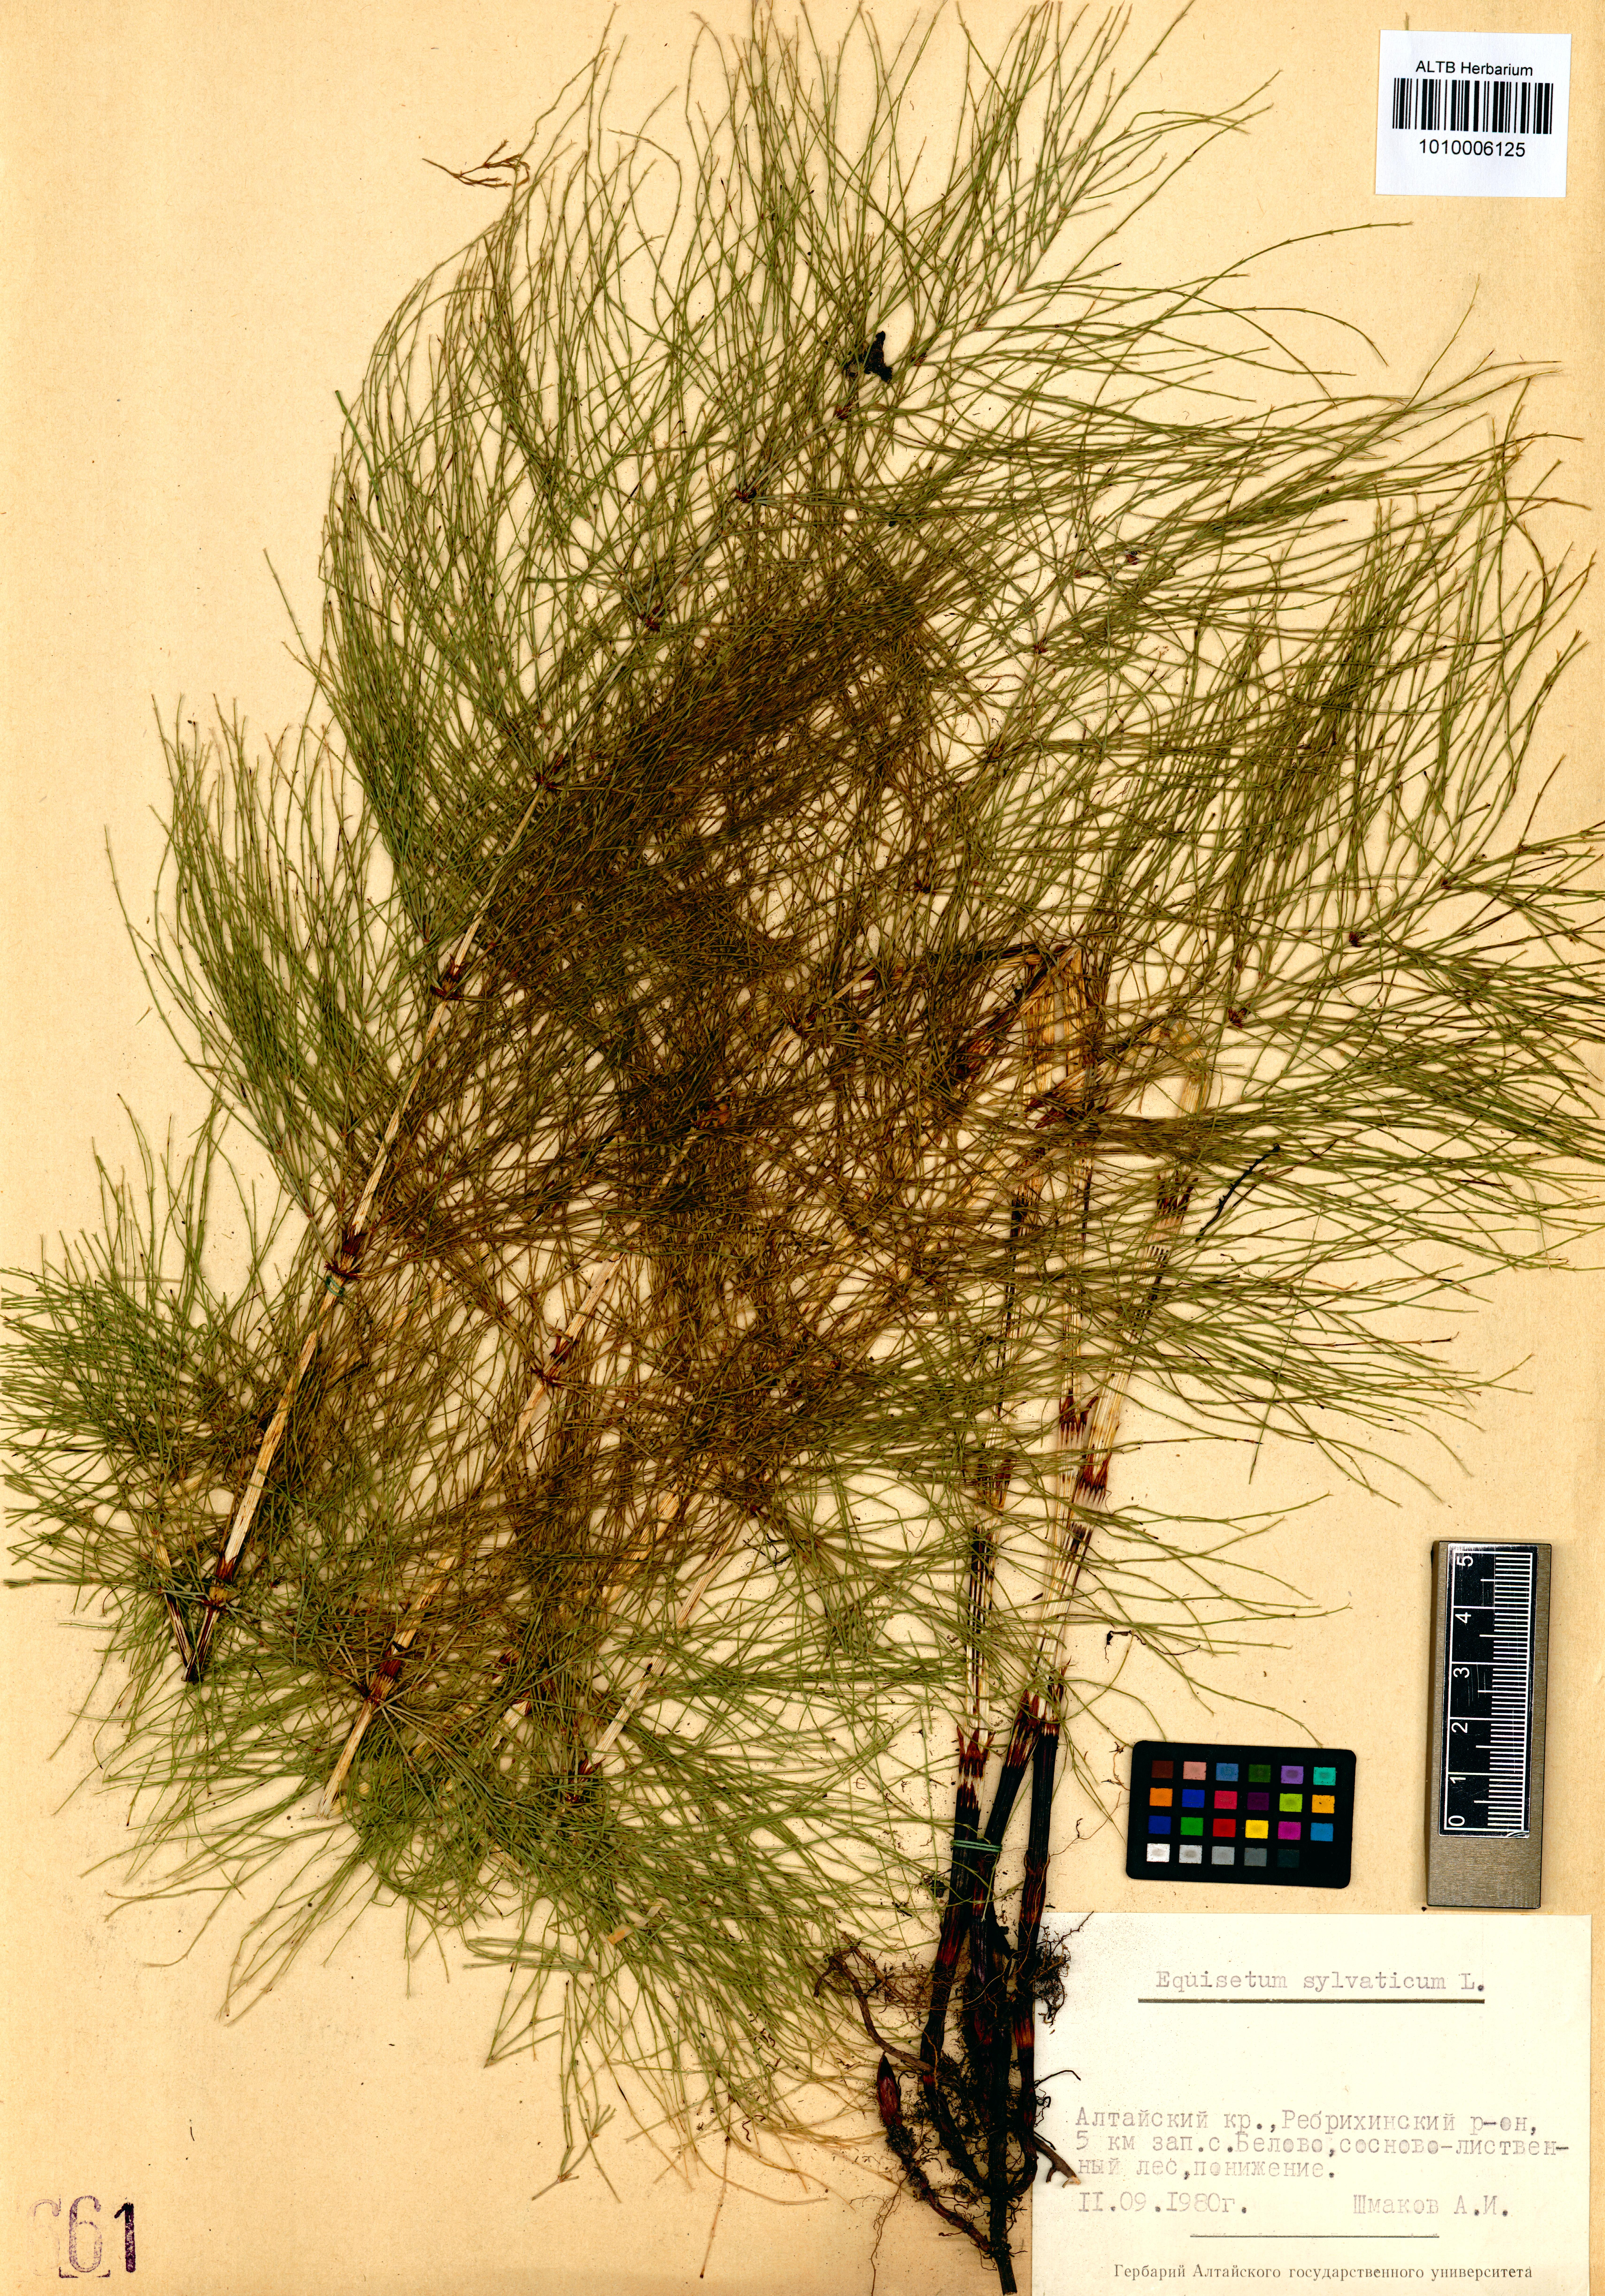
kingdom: Plantae
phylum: Tracheophyta
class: Polypodiopsida
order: Equisetales
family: Equisetaceae
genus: Equisetum
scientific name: Equisetum sylvaticum
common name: Wood horsetail
